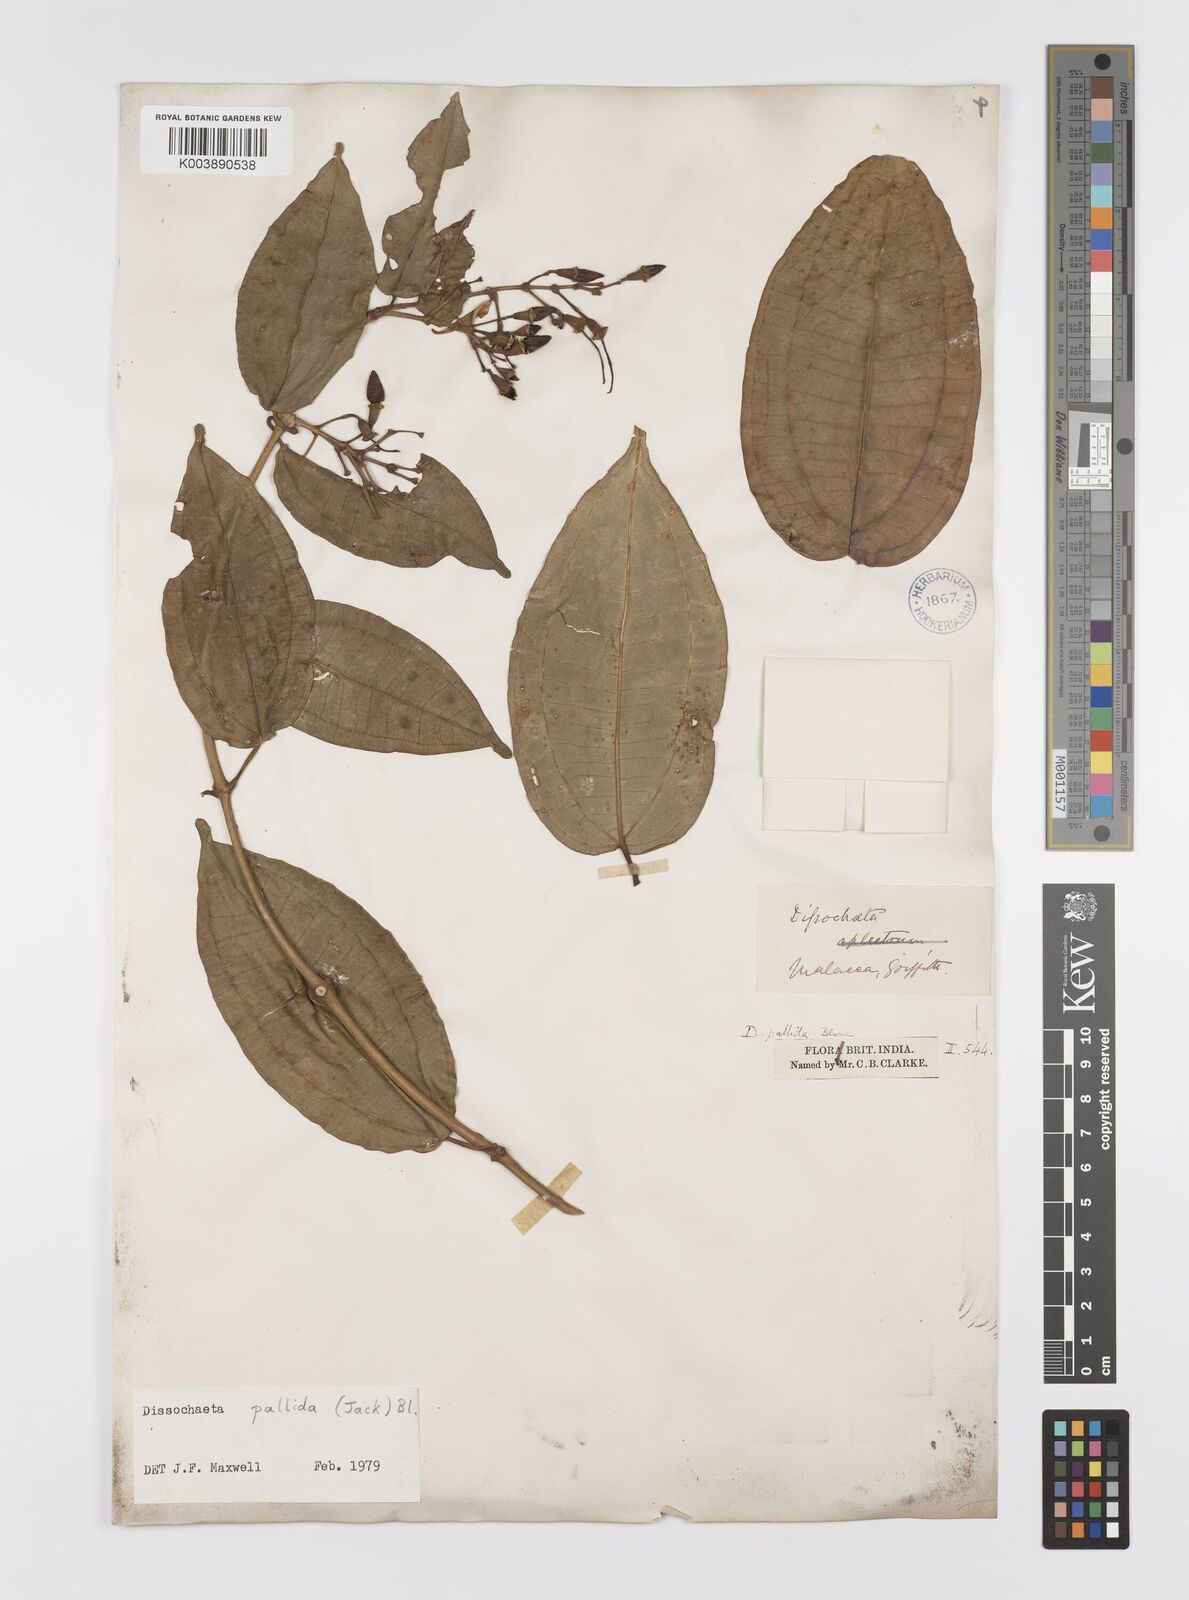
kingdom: Plantae
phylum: Tracheophyta
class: Magnoliopsida
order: Myrtales
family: Melastomataceae
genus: Dissochaeta
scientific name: Dissochaeta pallida
